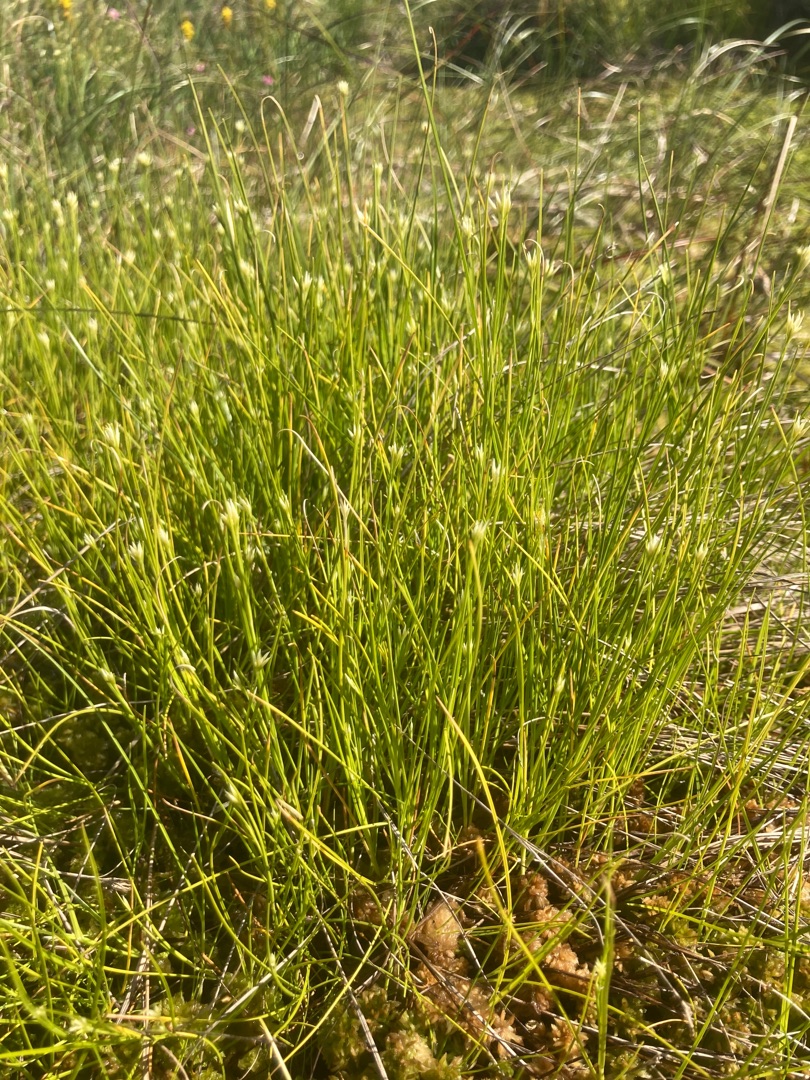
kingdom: Plantae
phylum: Tracheophyta
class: Liliopsida
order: Poales
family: Cyperaceae
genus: Rhynchospora
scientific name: Rhynchospora alba
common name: Hvid næbfrø
